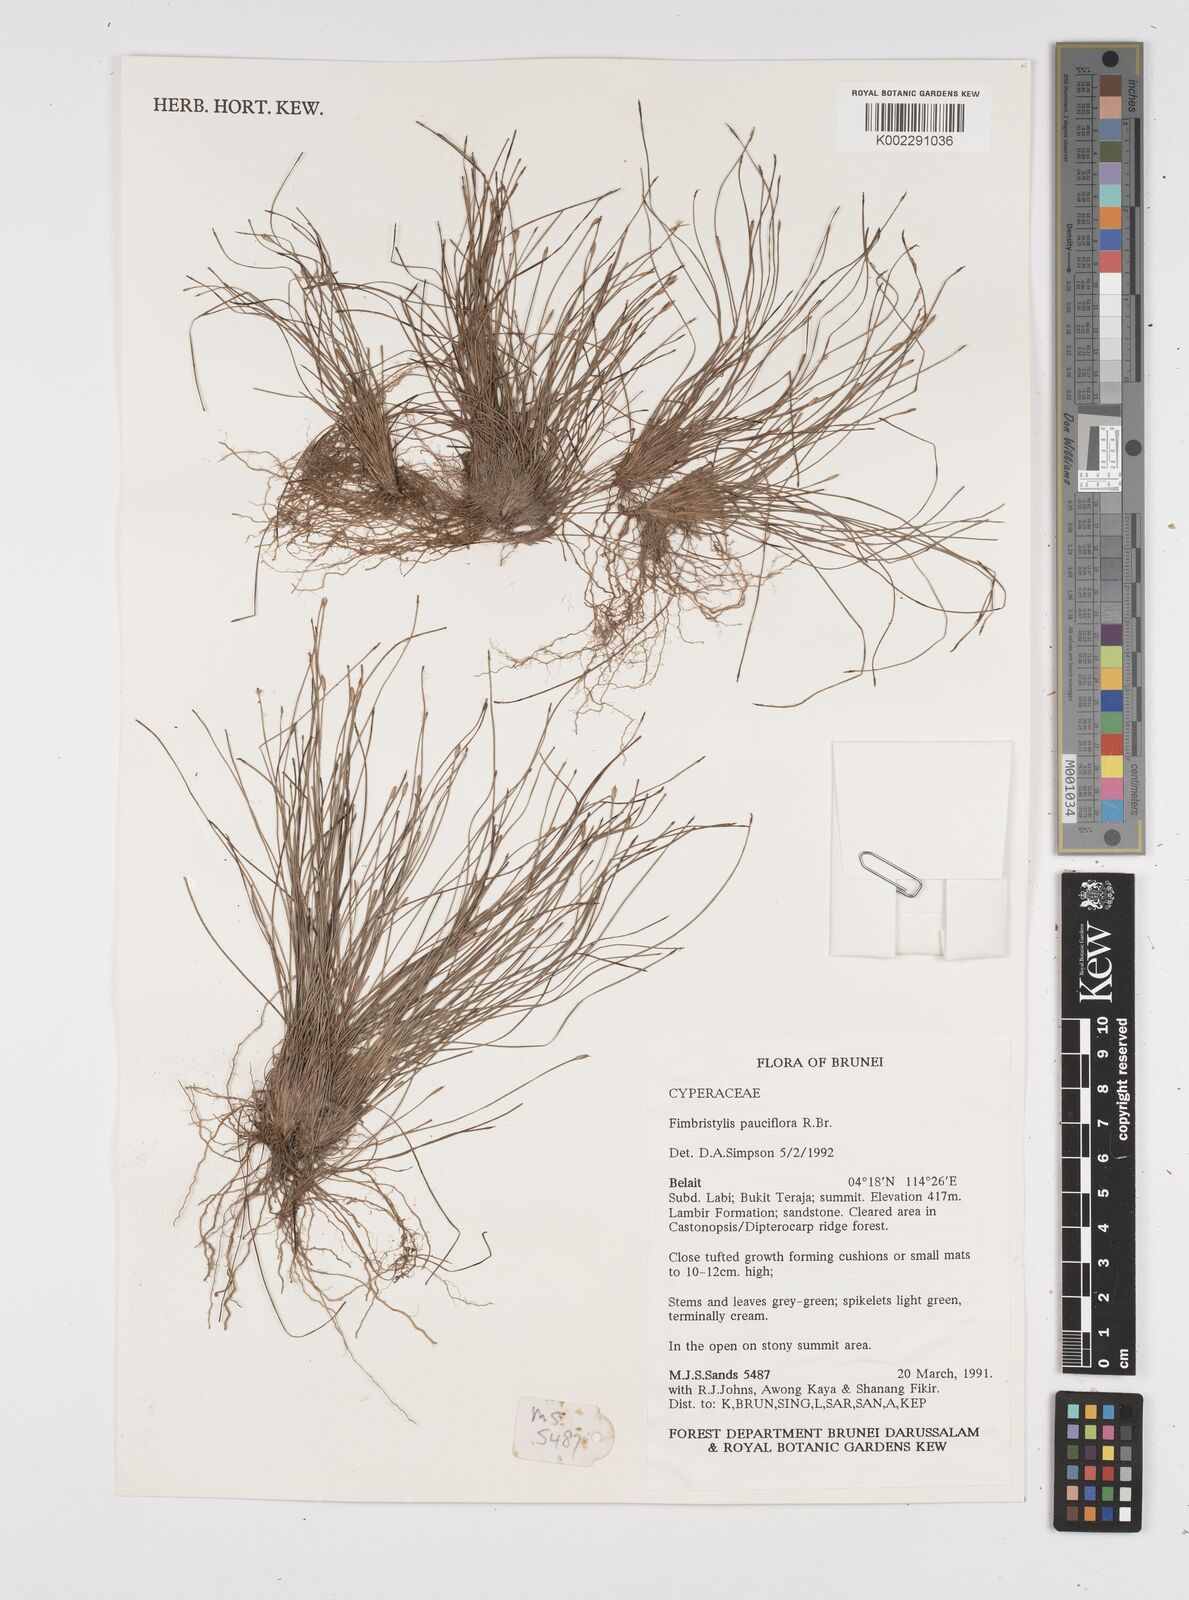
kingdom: Plantae
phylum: Tracheophyta
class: Liliopsida
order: Poales
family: Cyperaceae
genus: Fimbristylis
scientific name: Fimbristylis pauciflora
